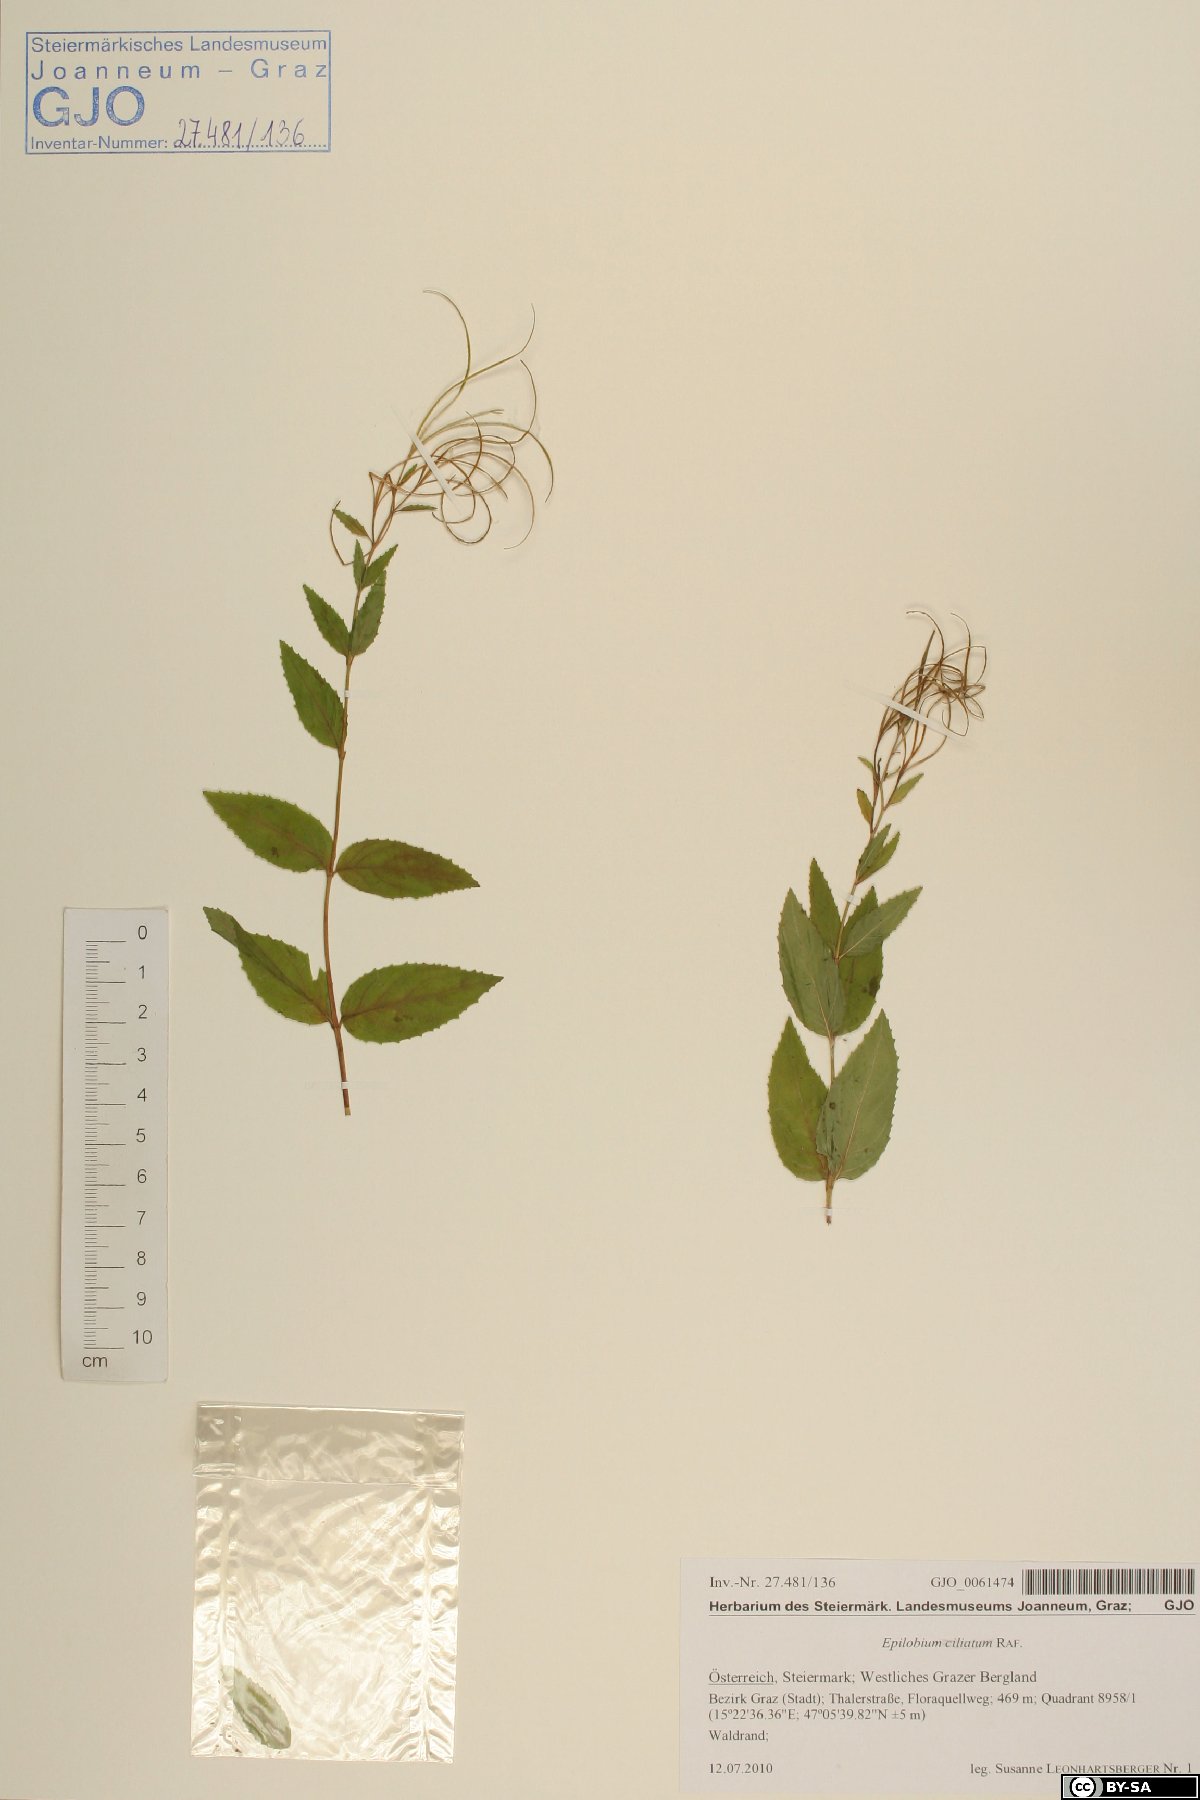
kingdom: Plantae
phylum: Tracheophyta
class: Magnoliopsida
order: Myrtales
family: Onagraceae
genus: Epilobium
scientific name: Epilobium ciliatum
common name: American willowherb
